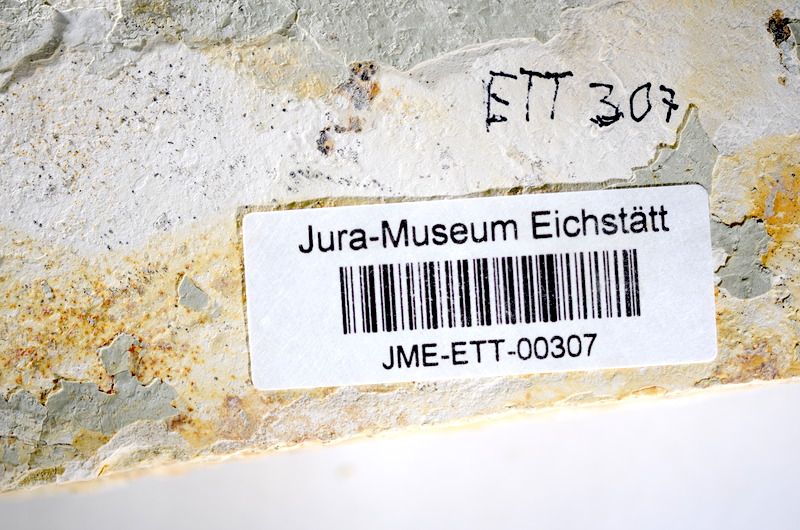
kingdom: Animalia
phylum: Chordata
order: Salmoniformes
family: Orthogonikleithridae
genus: Orthogonikleithrus
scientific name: Orthogonikleithrus hoelli
